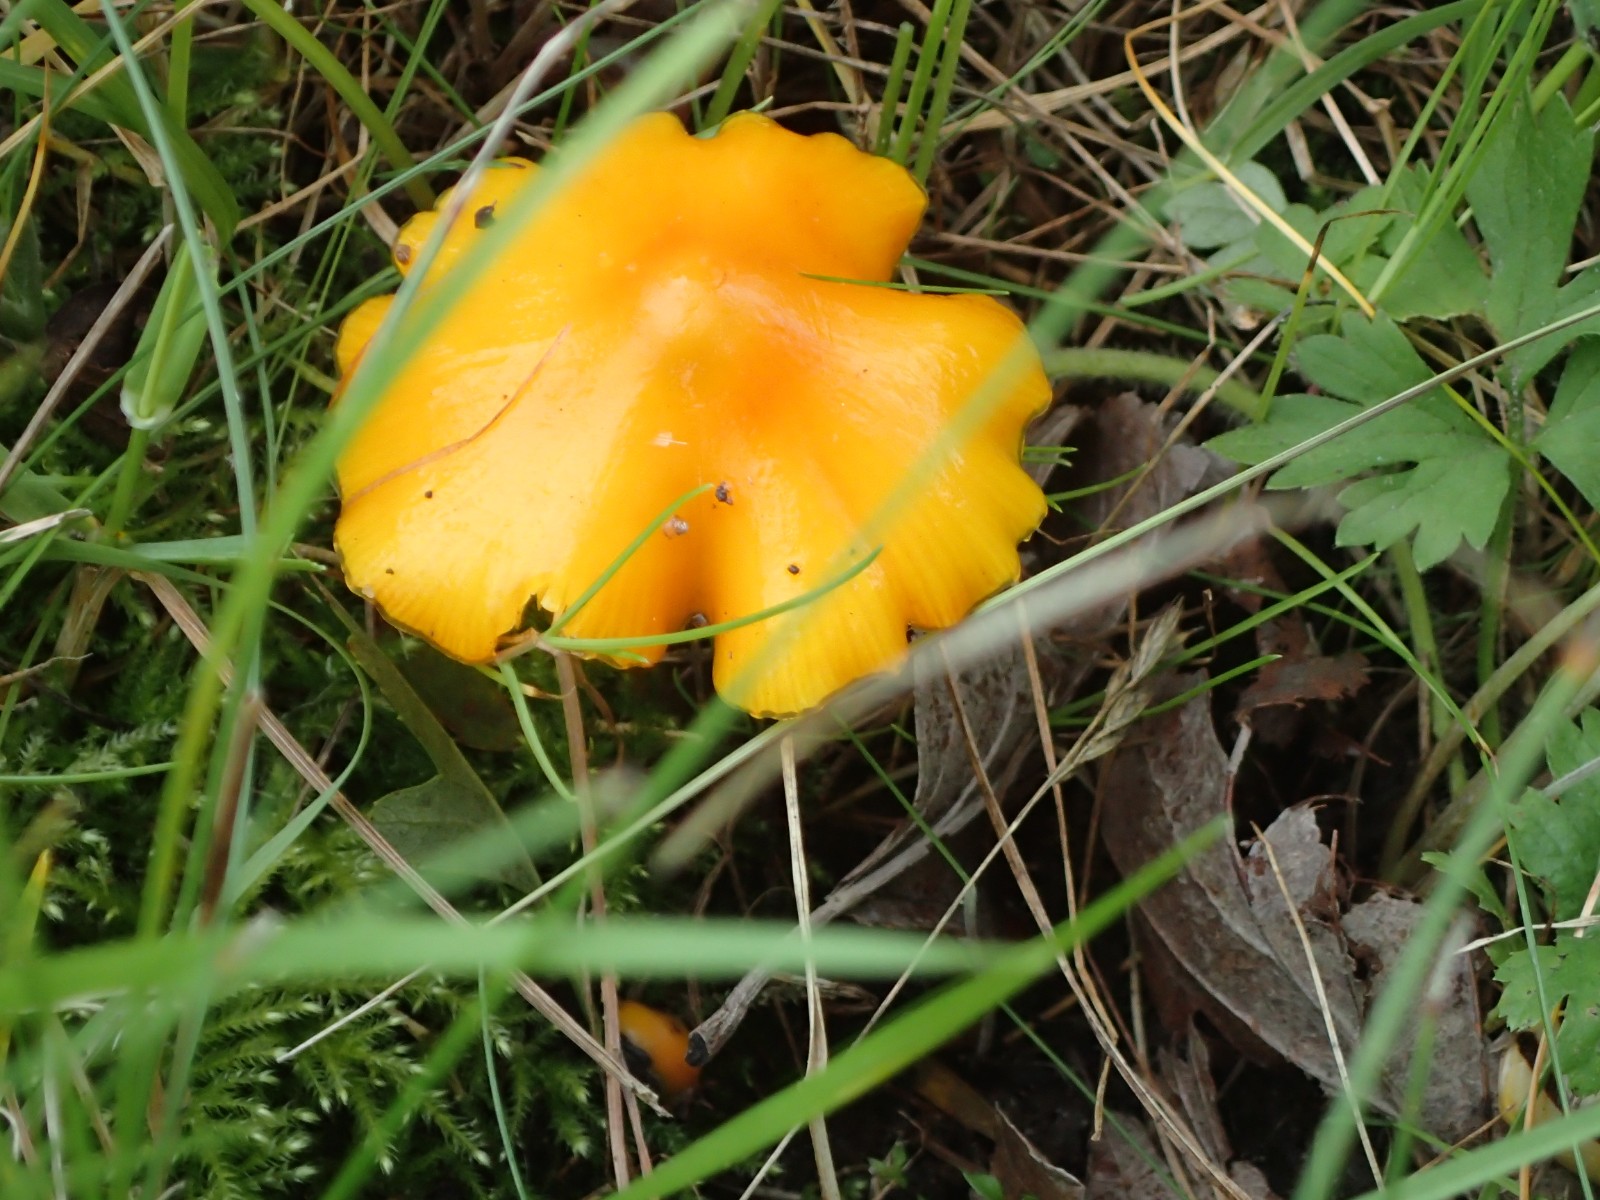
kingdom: Fungi
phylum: Basidiomycota
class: Agaricomycetes
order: Agaricales
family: Hygrophoraceae
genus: Hygrocybe
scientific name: Hygrocybe acutoconica
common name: spidspuklet vokshat
